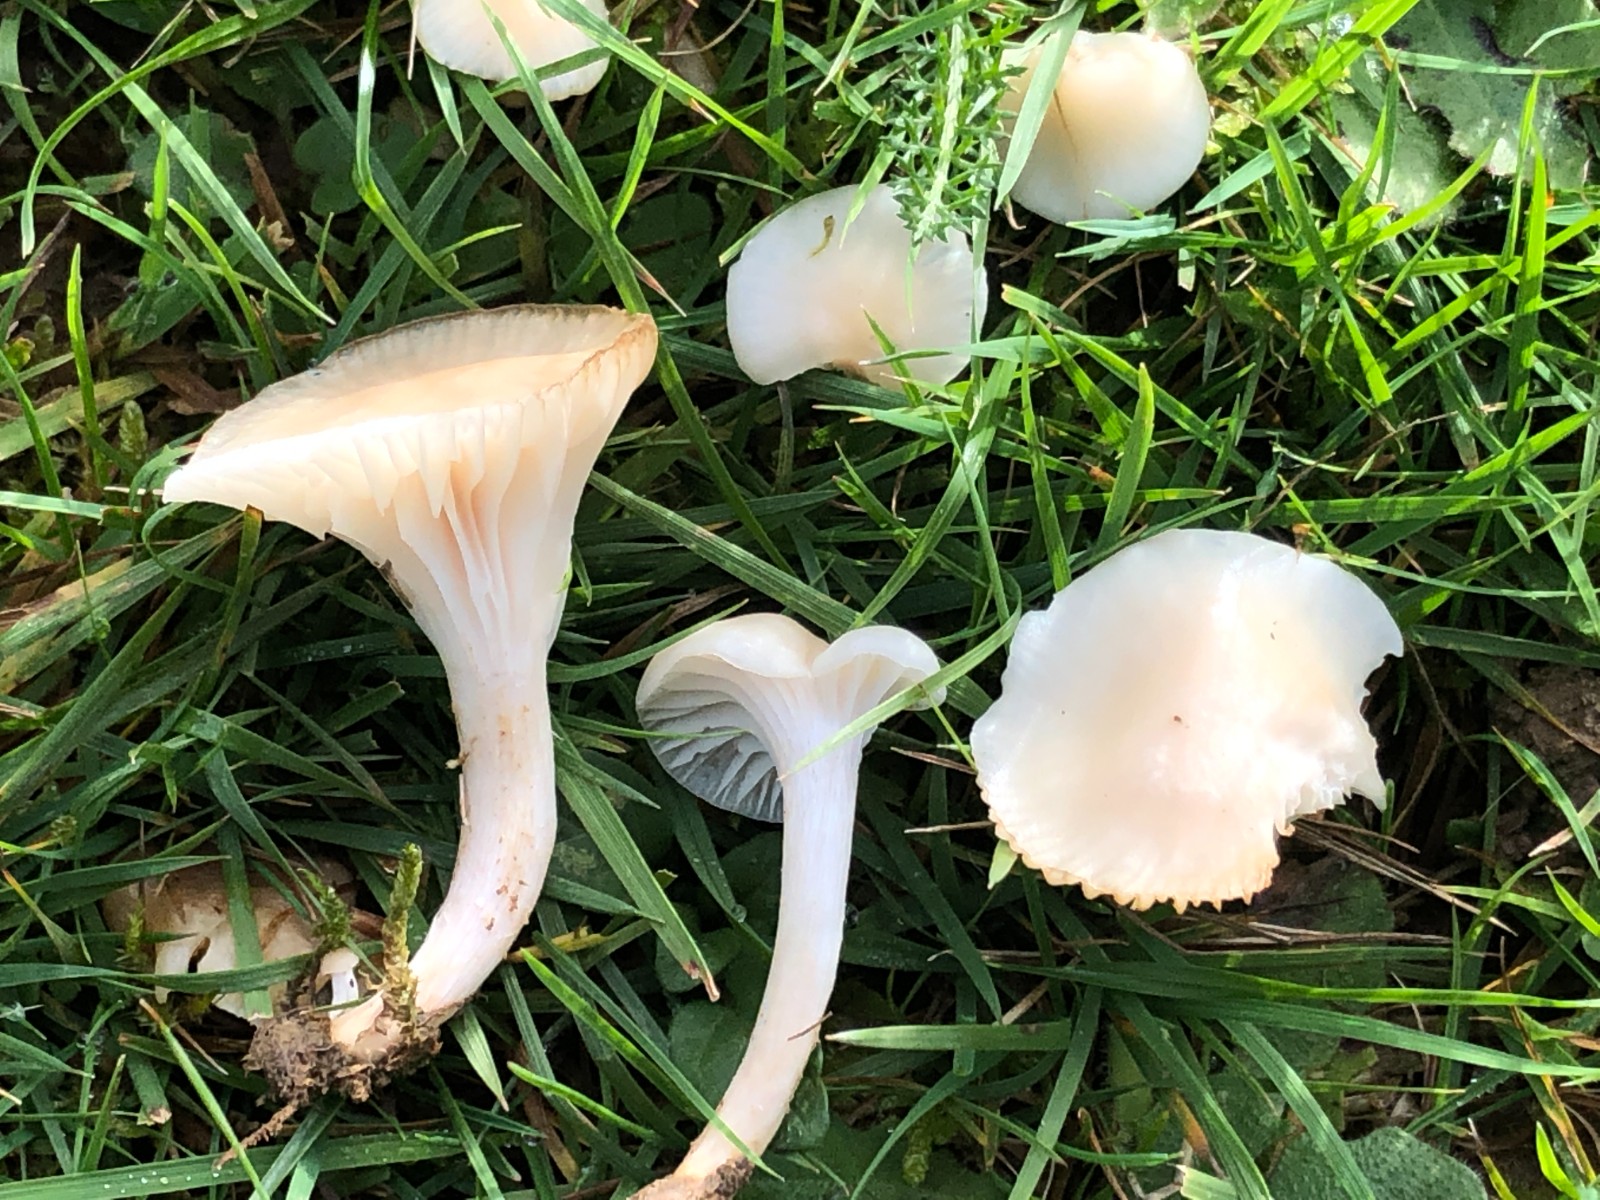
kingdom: Fungi
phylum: Basidiomycota
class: Agaricomycetes
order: Agaricales
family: Hygrophoraceae
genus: Cuphophyllus
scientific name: Cuphophyllus
